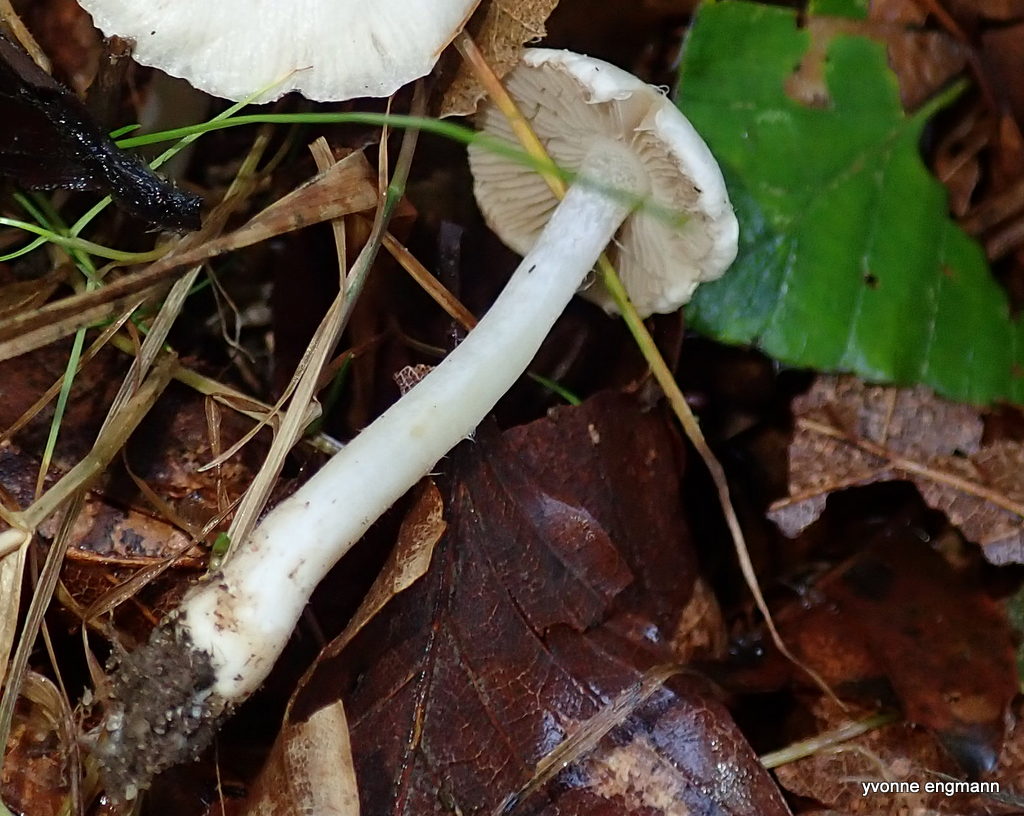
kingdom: Fungi
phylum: Basidiomycota
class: Agaricomycetes
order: Agaricales
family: Inocybaceae
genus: Inocybe
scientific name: Inocybe
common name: almindelig trævlhat
